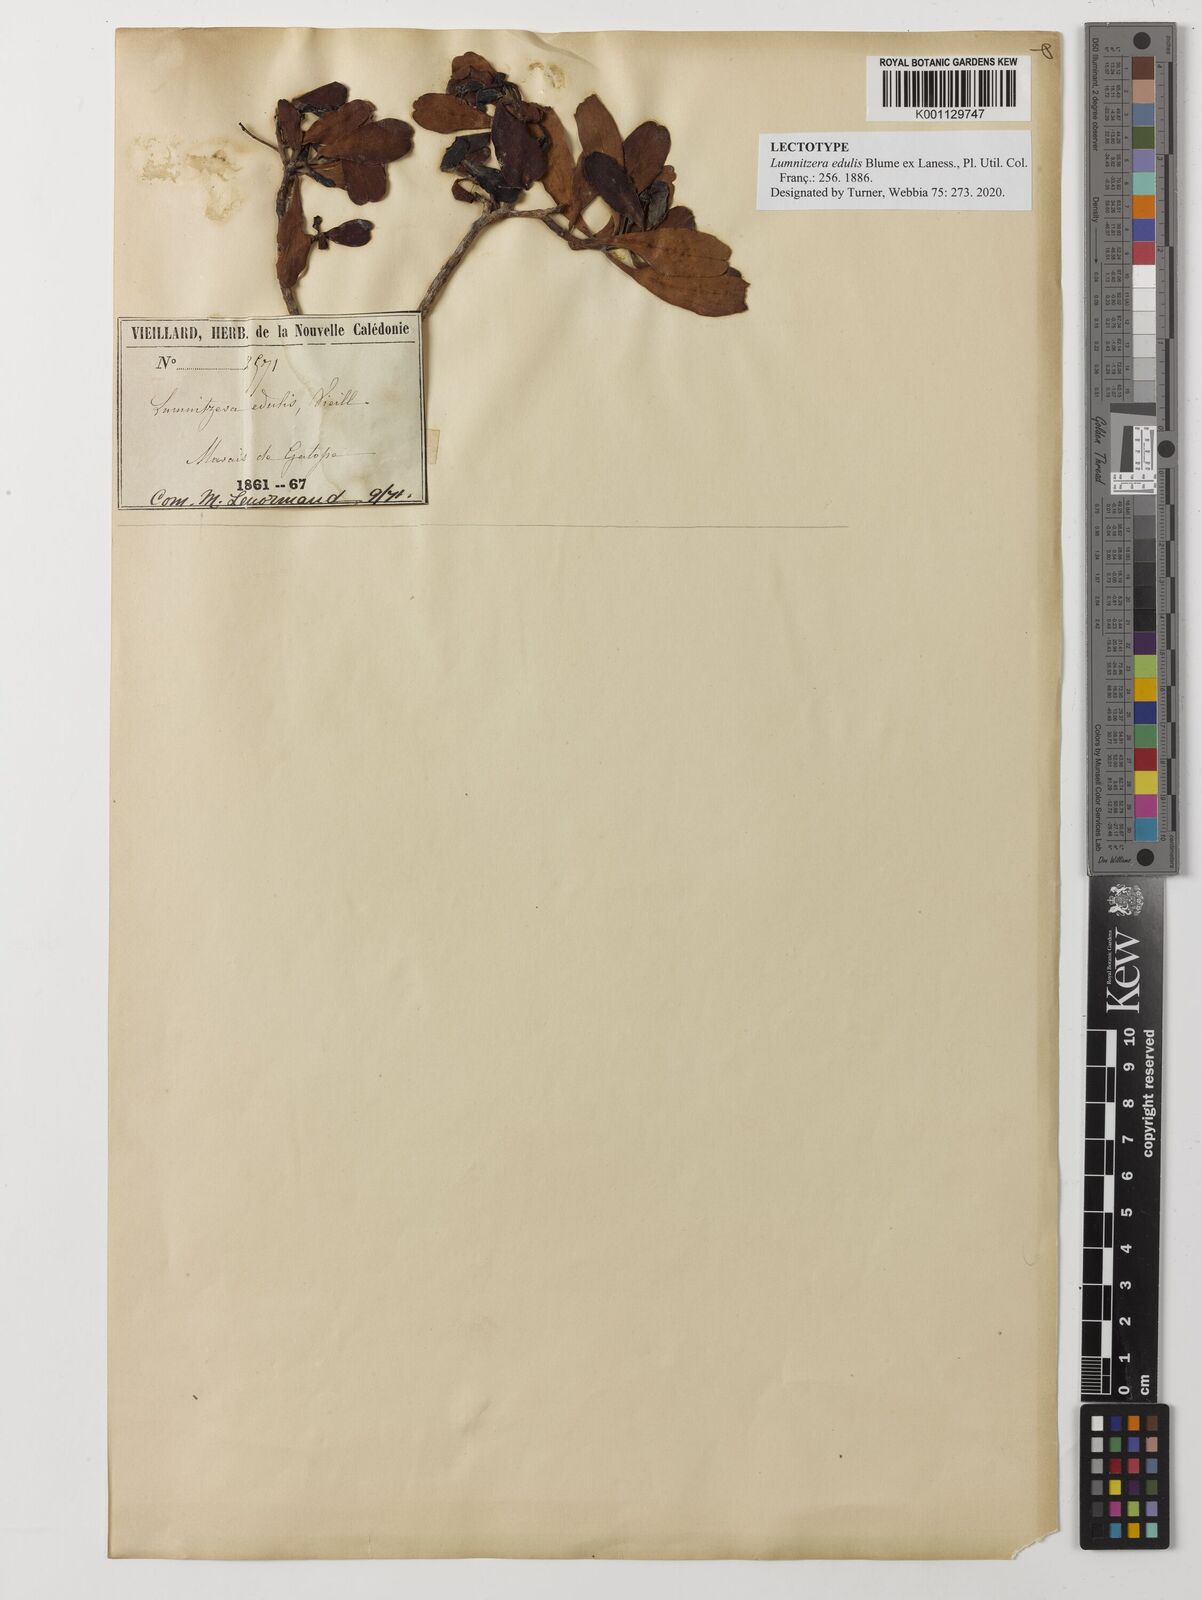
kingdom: Plantae
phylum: Tracheophyta
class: Magnoliopsida
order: Myrtales
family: Combretaceae
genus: Lumnitzera
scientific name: Lumnitzera racemosa
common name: White-flowered black mangrove
